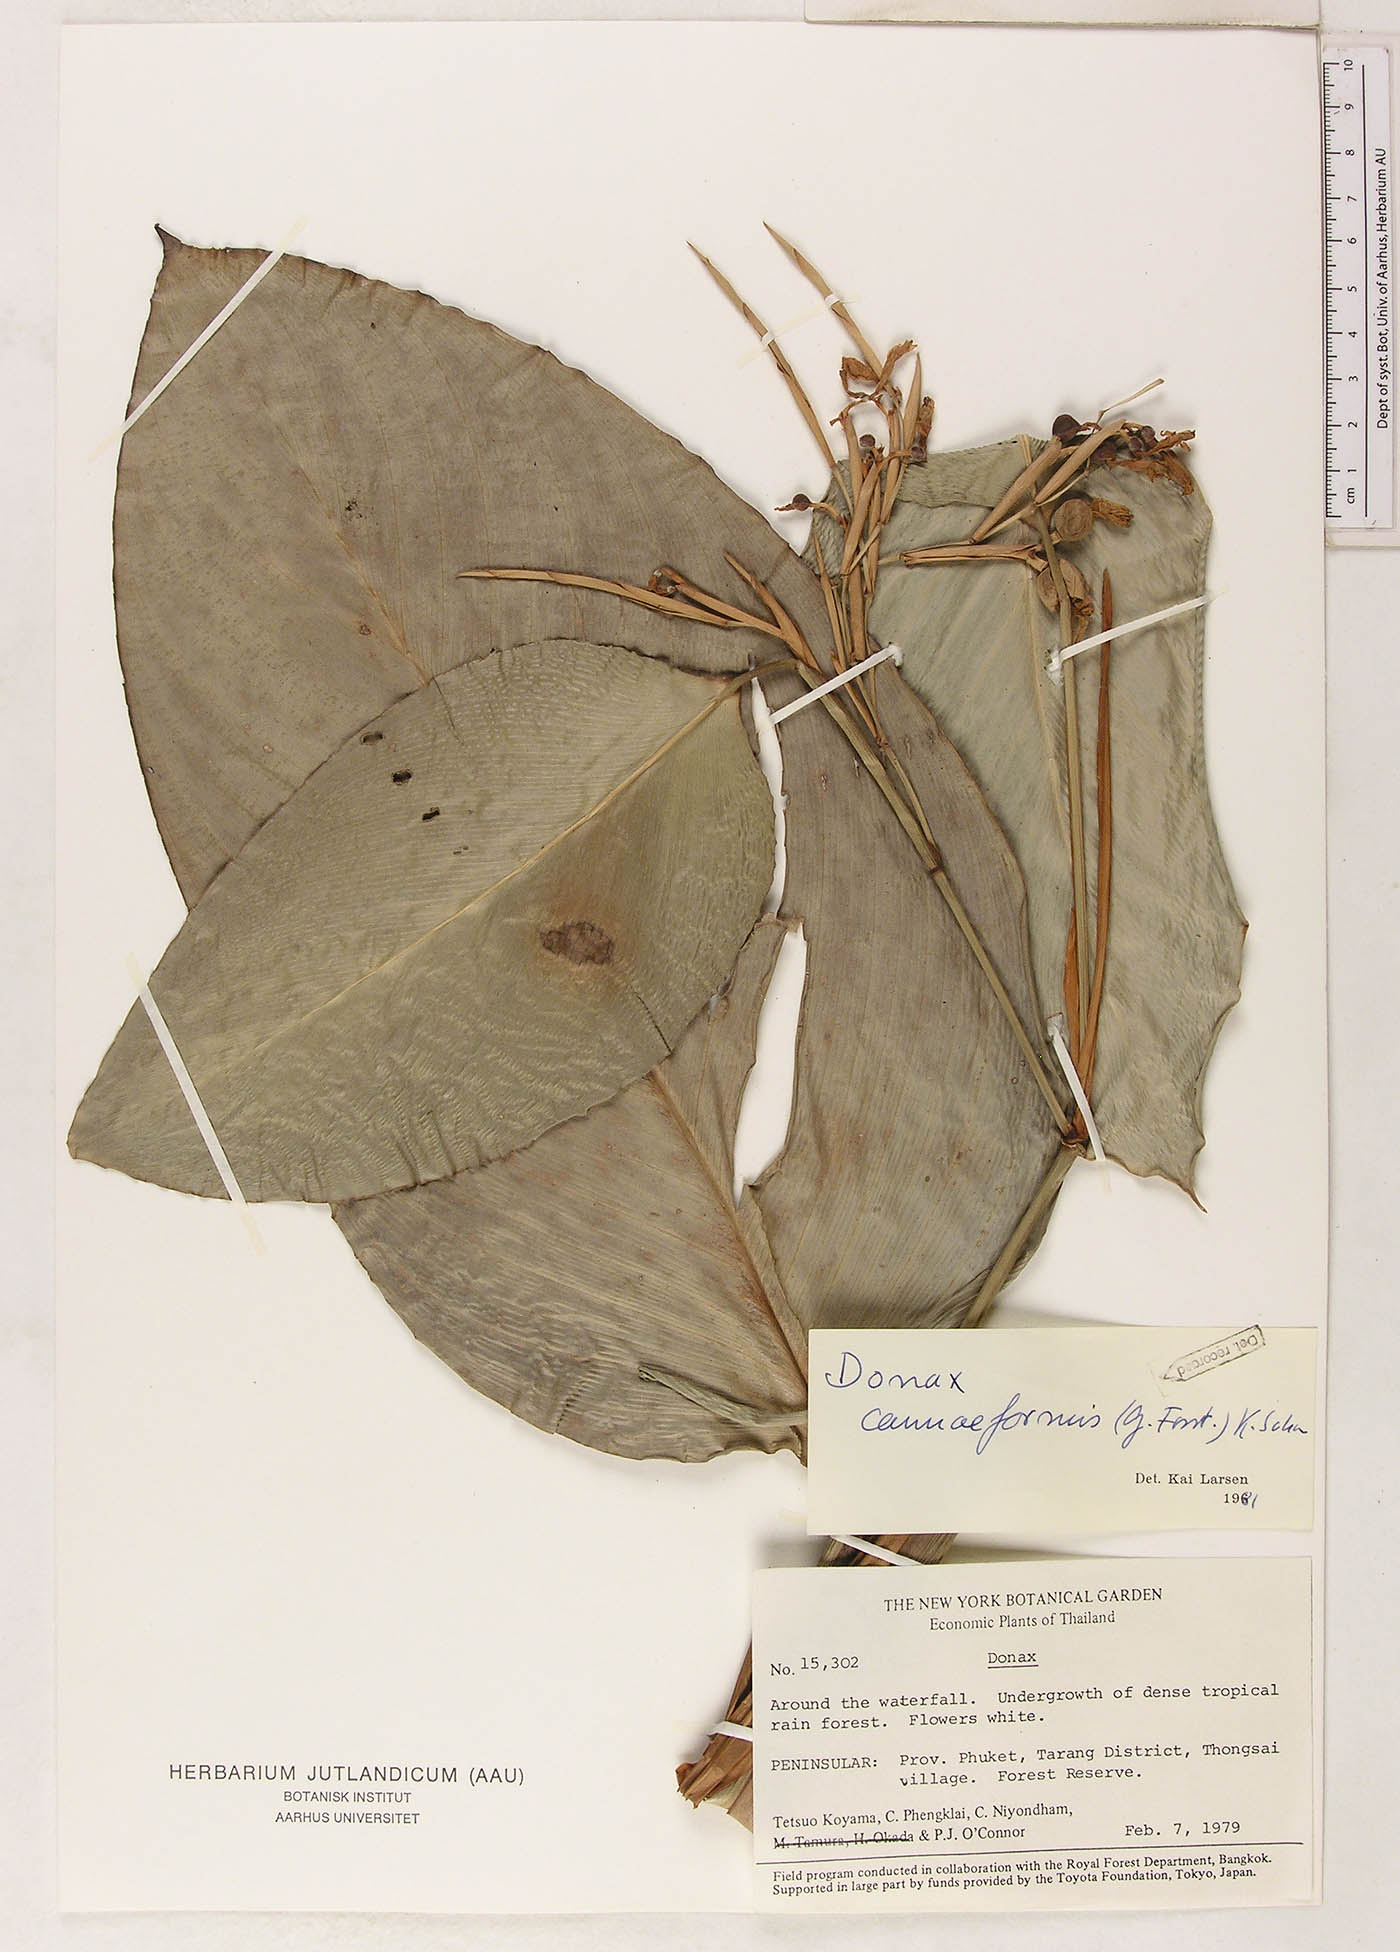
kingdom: Plantae
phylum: Tracheophyta
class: Liliopsida
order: Zingiberales
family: Marantaceae
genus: Donax
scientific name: Donax canniformis
